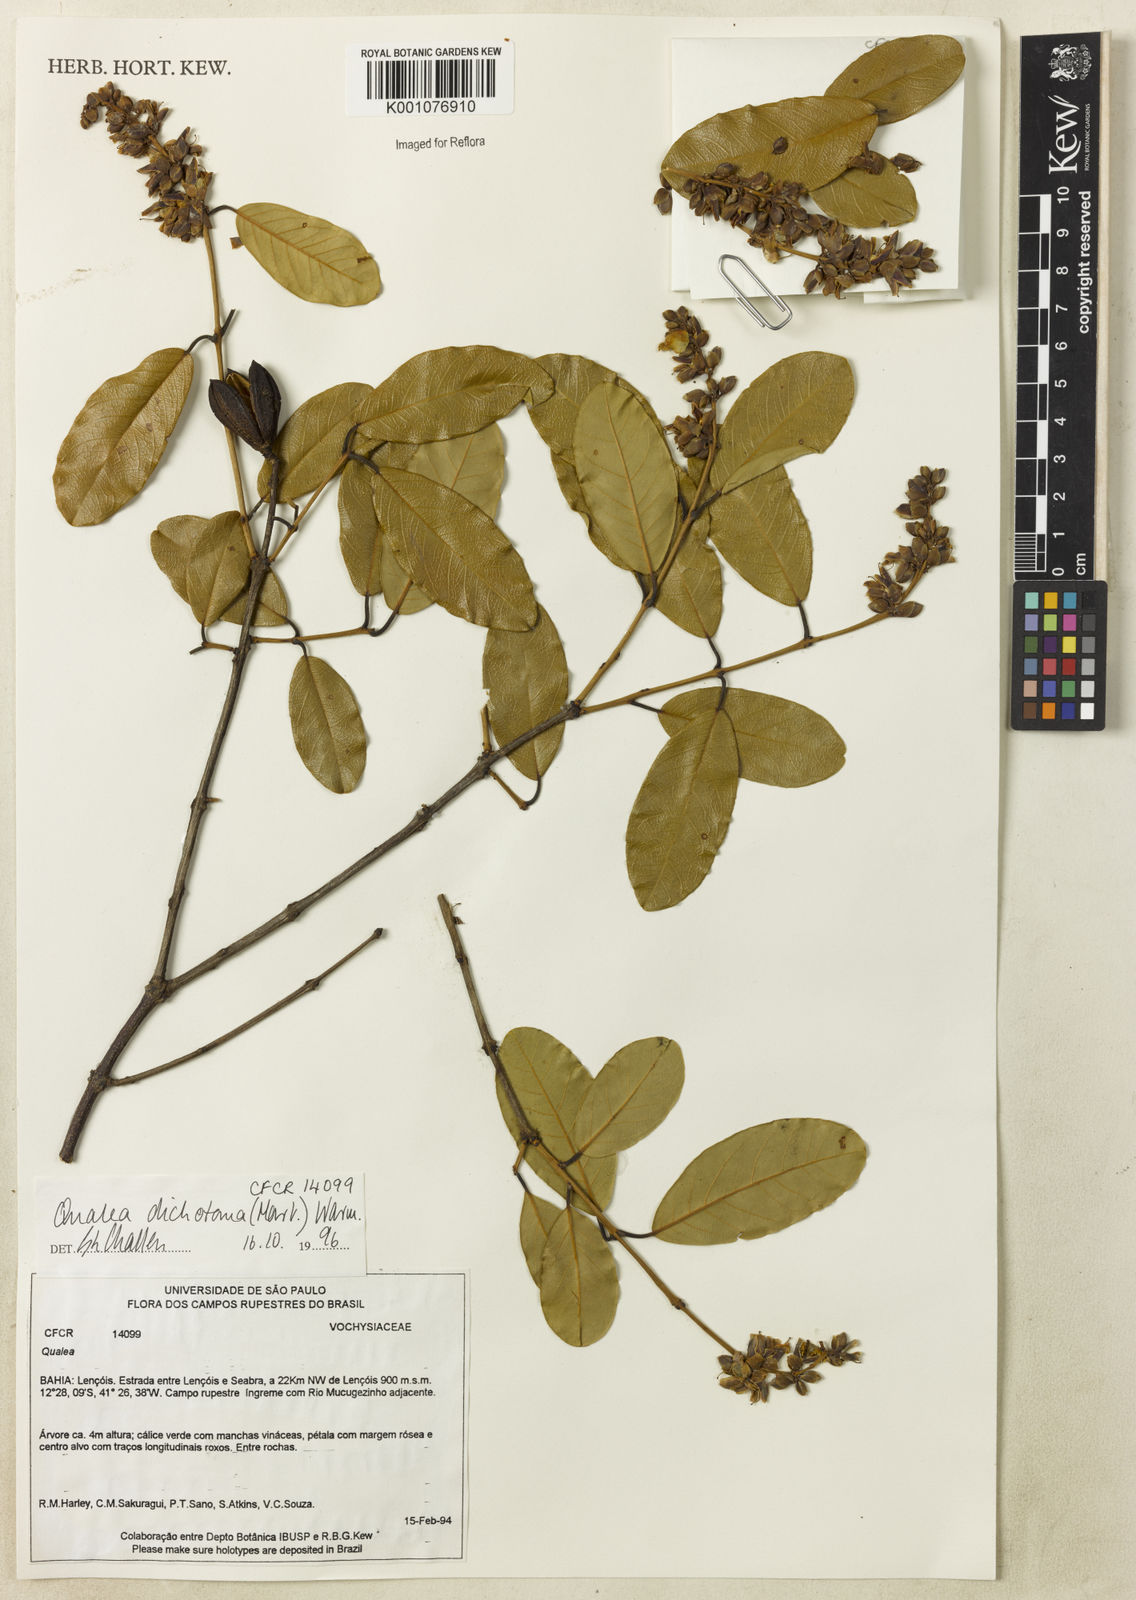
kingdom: Plantae
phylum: Tracheophyta
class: Magnoliopsida
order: Myrtales
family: Vochysiaceae
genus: Qualea
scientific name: Qualea
